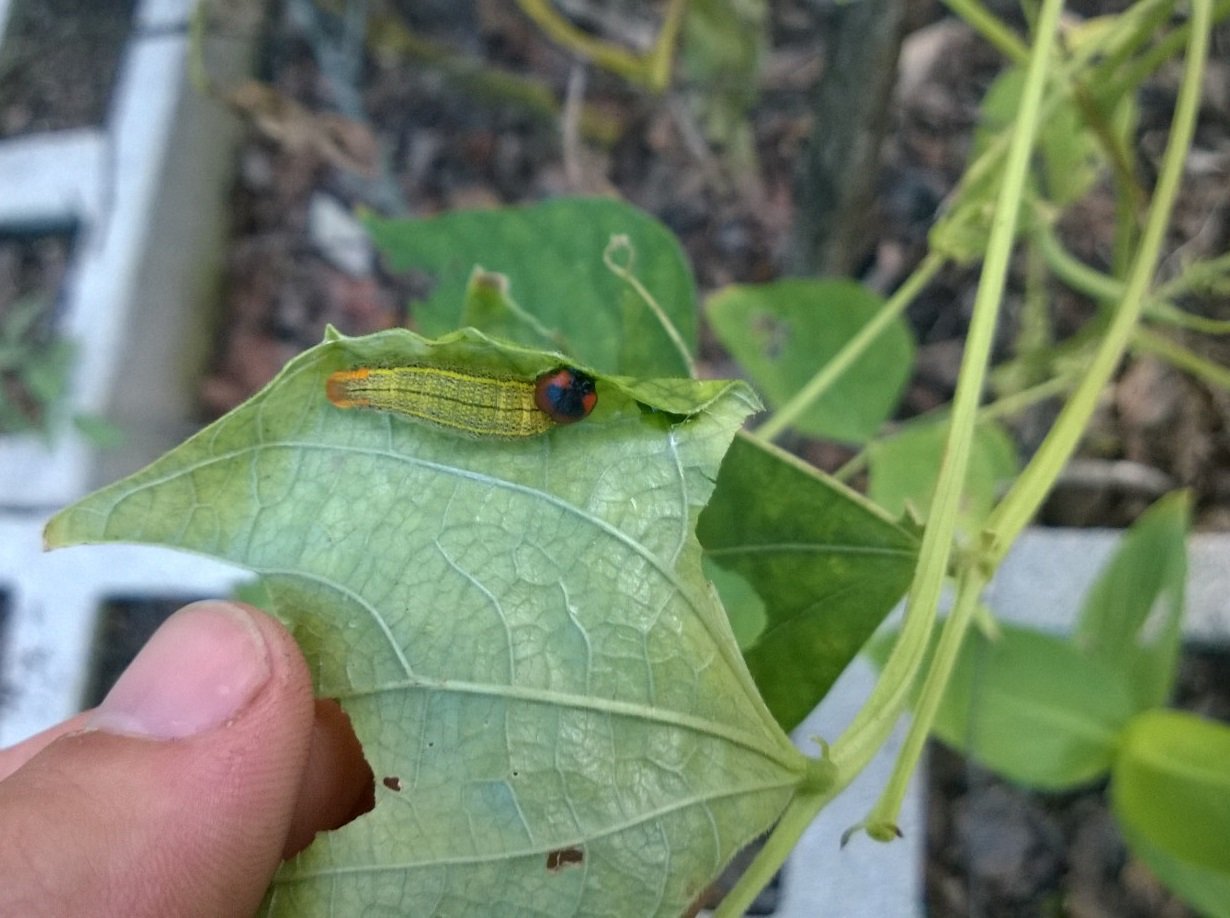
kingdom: Animalia
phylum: Arthropoda
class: Insecta
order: Lepidoptera
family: Hesperiidae
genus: Urbanus
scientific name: Urbanus proteus
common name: Long-tailed Skipper
